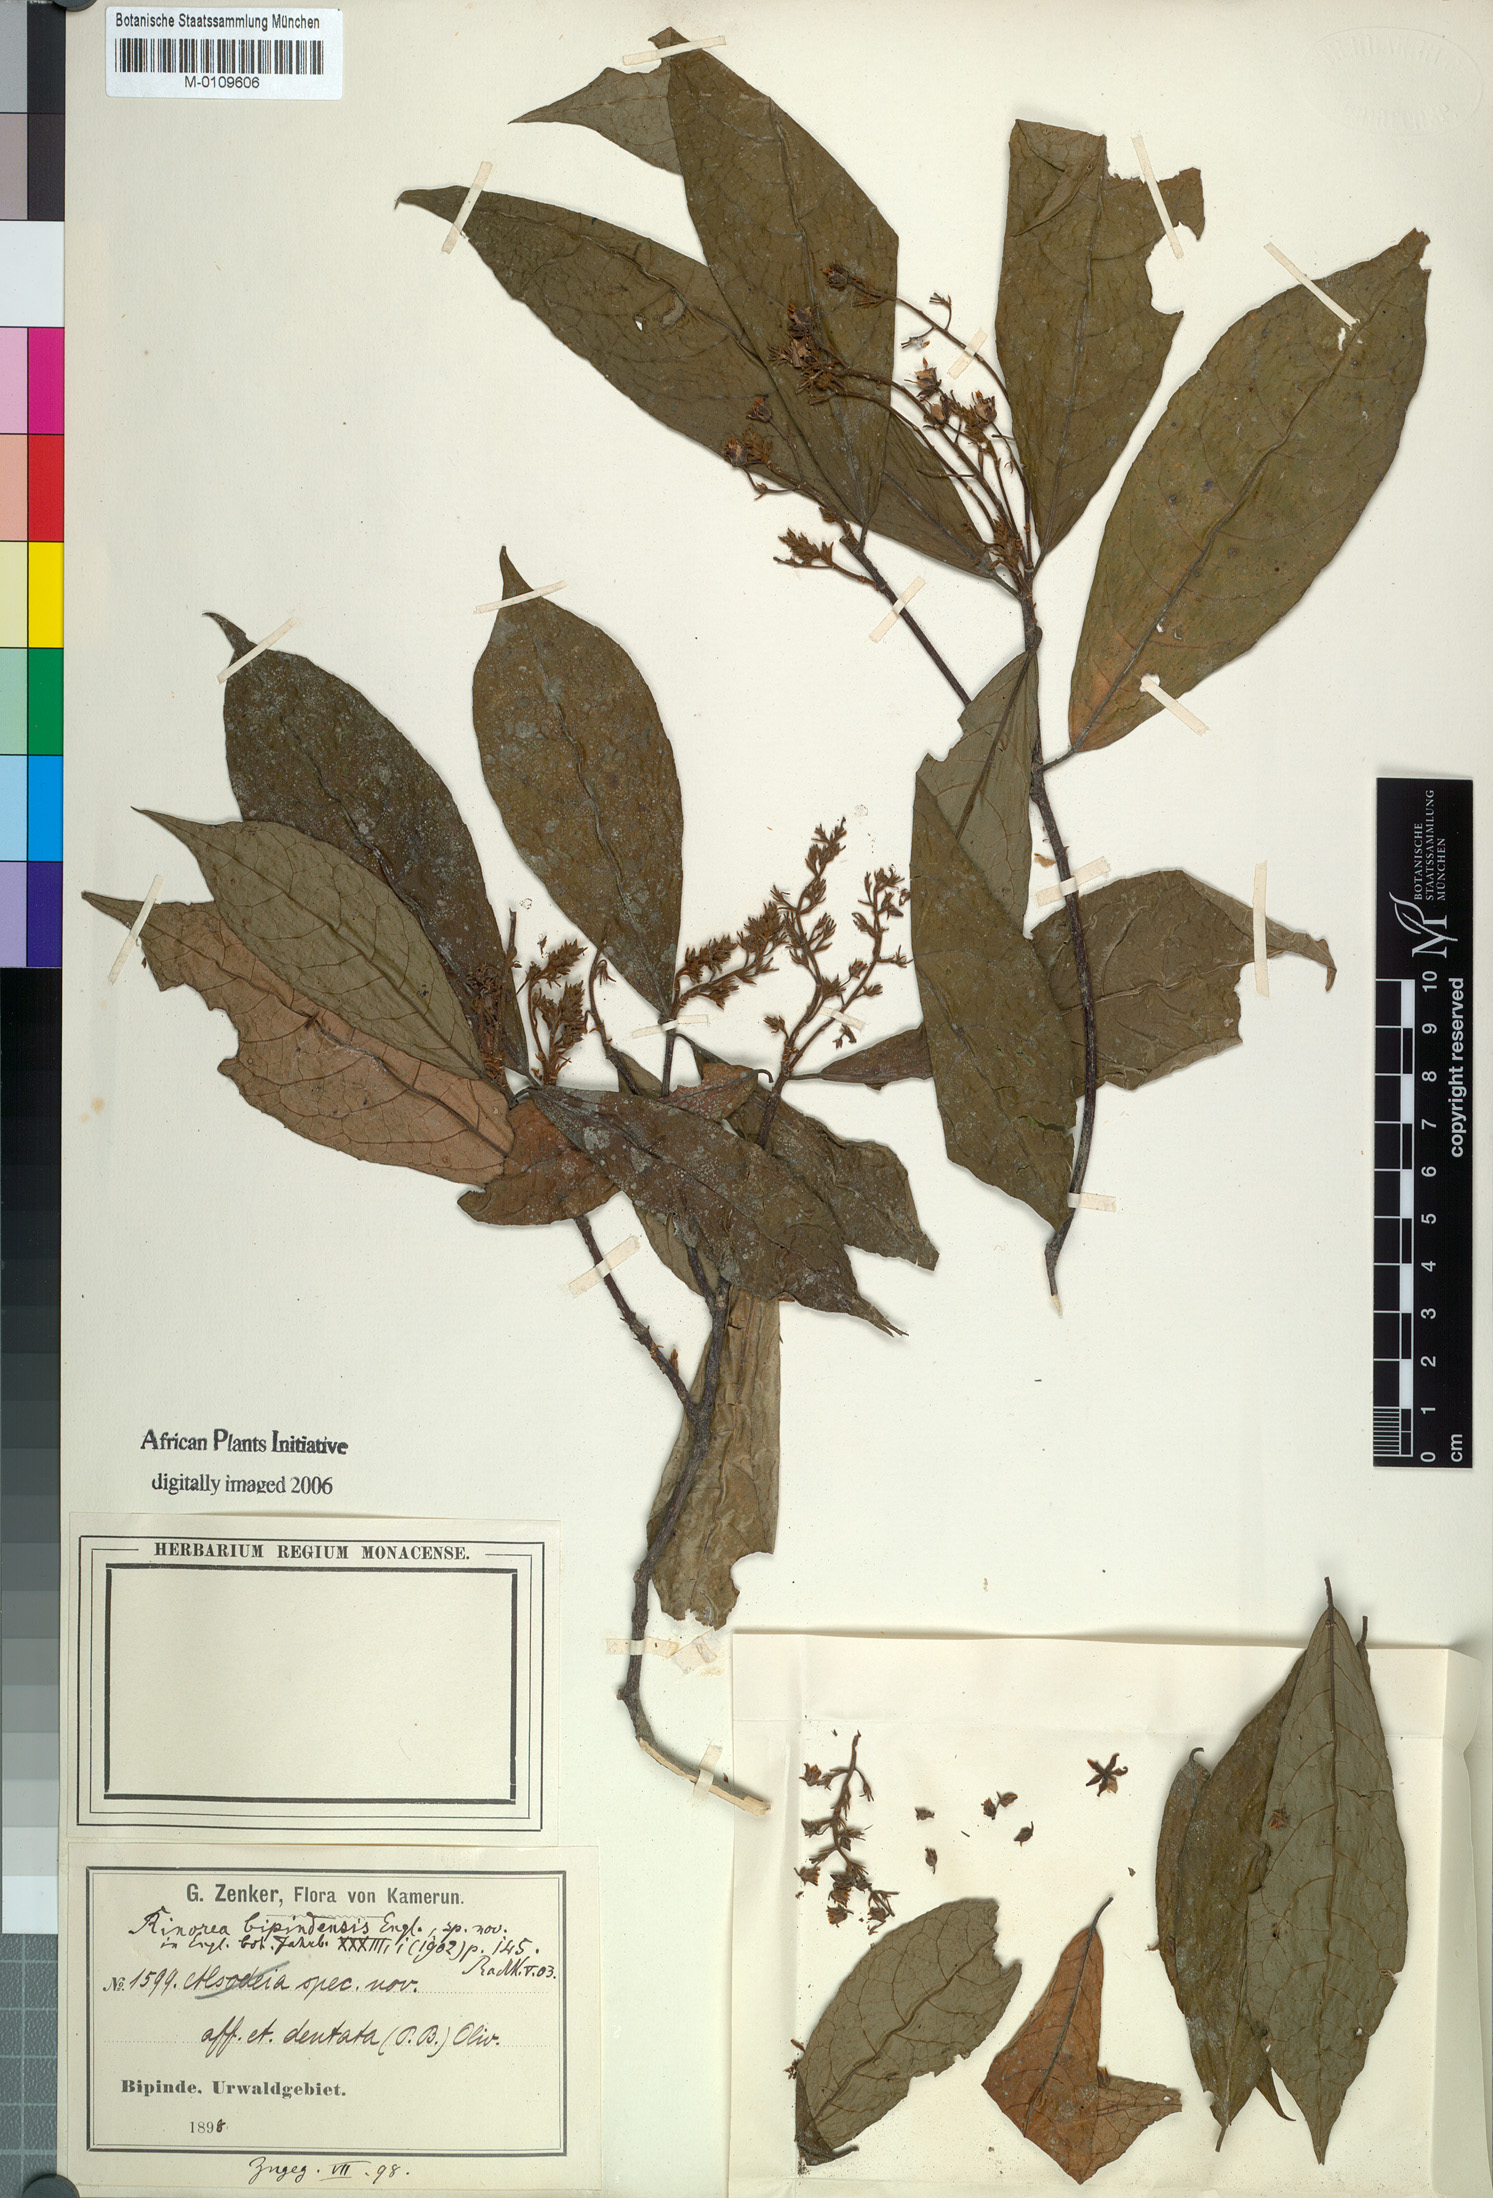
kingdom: Plantae
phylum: Tracheophyta
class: Magnoliopsida
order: Malpighiales
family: Violaceae
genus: Rinorea
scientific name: Rinorea dentata
